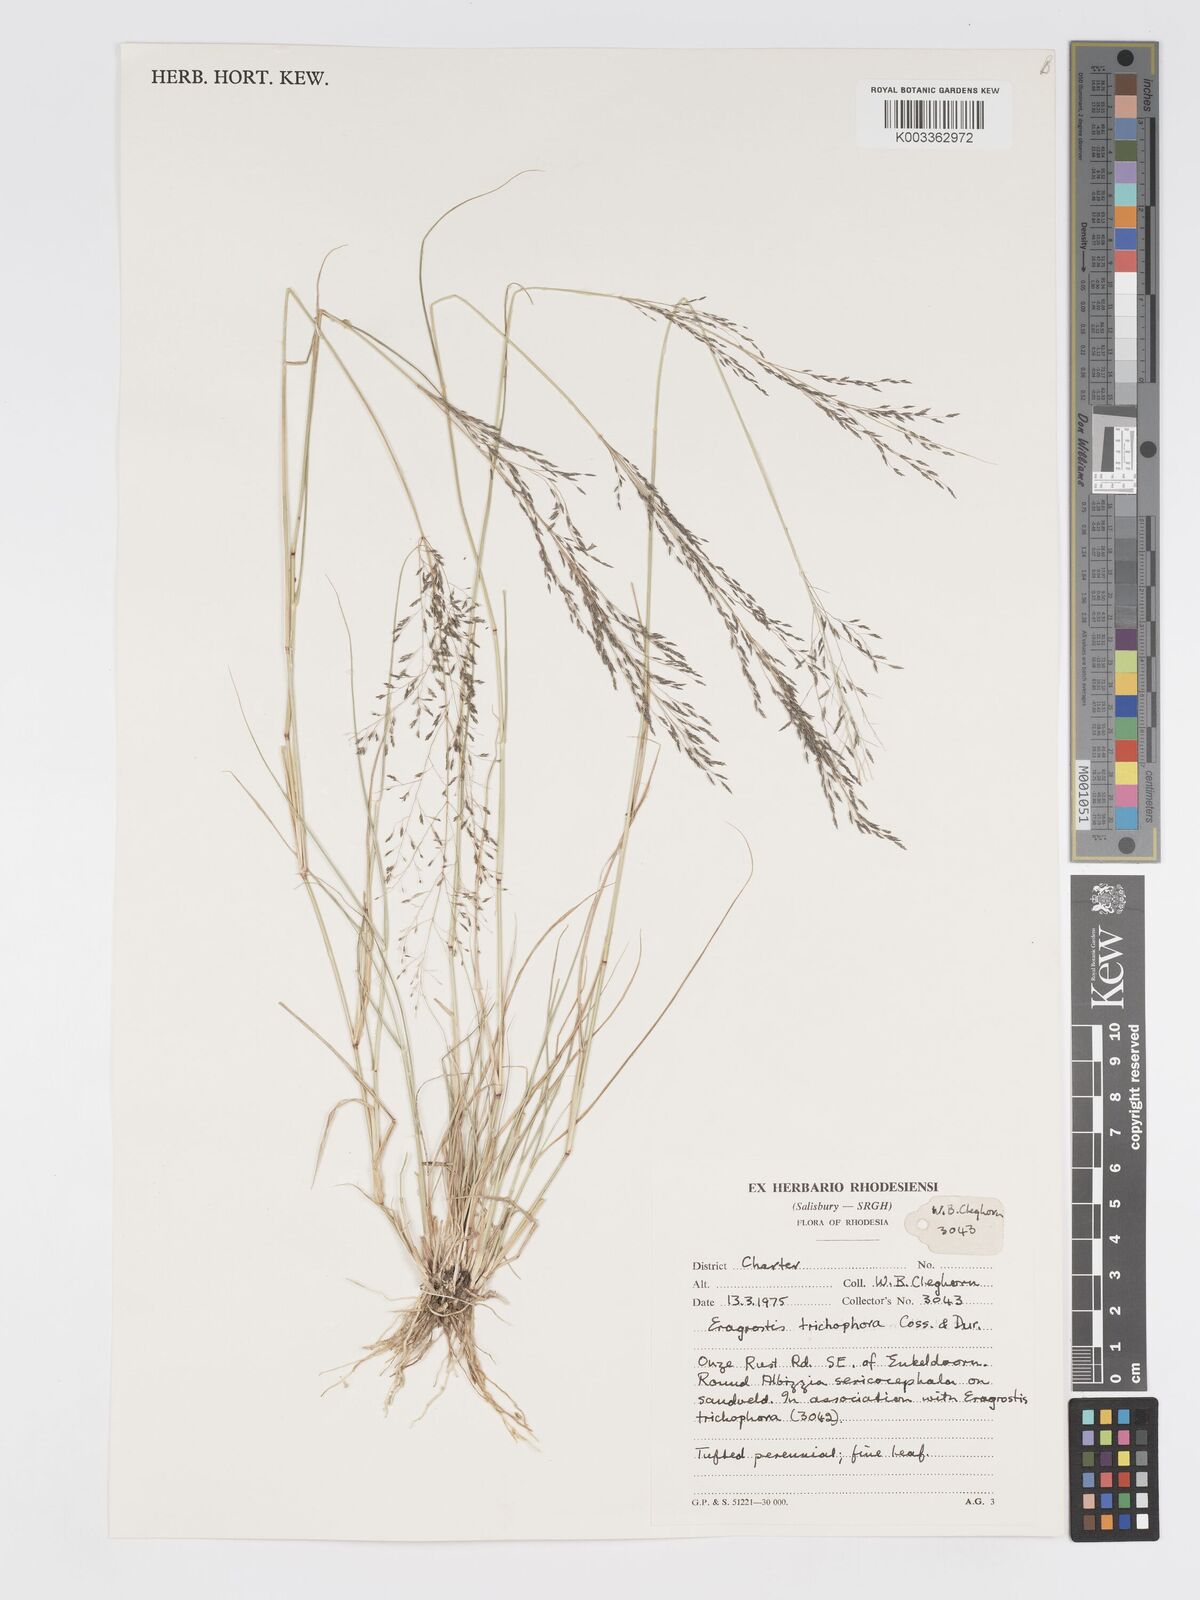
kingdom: Plantae
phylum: Tracheophyta
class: Liliopsida
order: Poales
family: Poaceae
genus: Eragrostis
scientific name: Eragrostis cylindriflora
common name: Cylinderflower lovegrass
